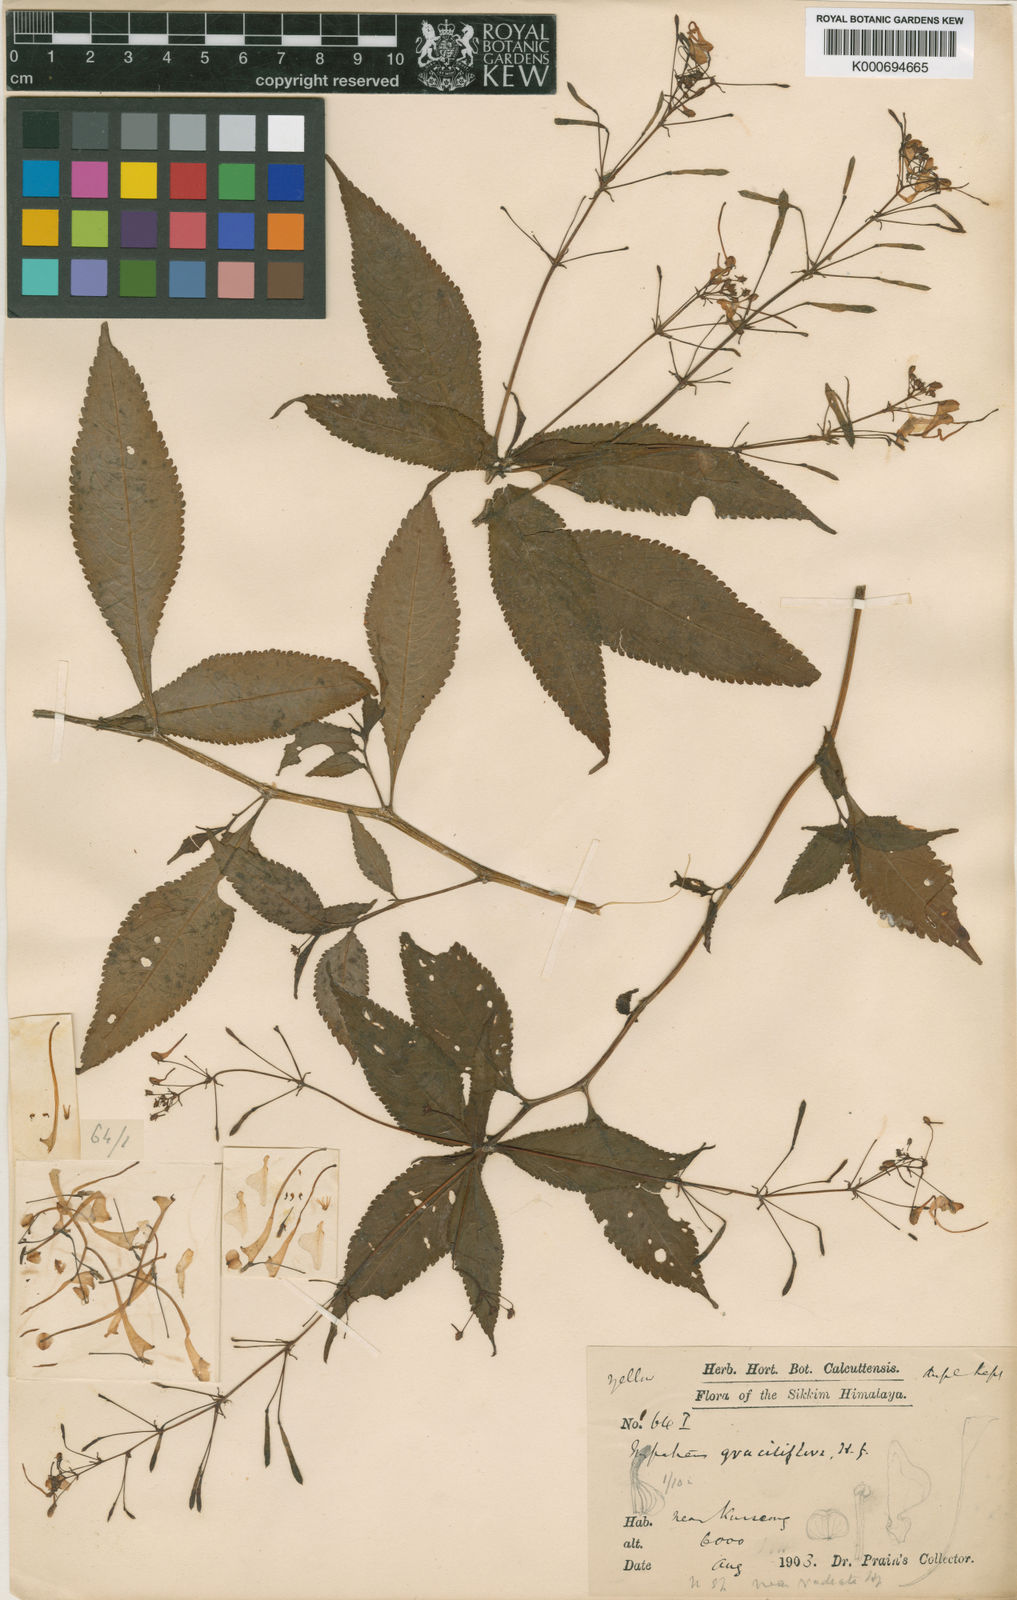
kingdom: Plantae
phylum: Tracheophyta
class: Magnoliopsida
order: Ericales
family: Balsaminaceae
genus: Impatiens
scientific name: Impatiens graciliflora
